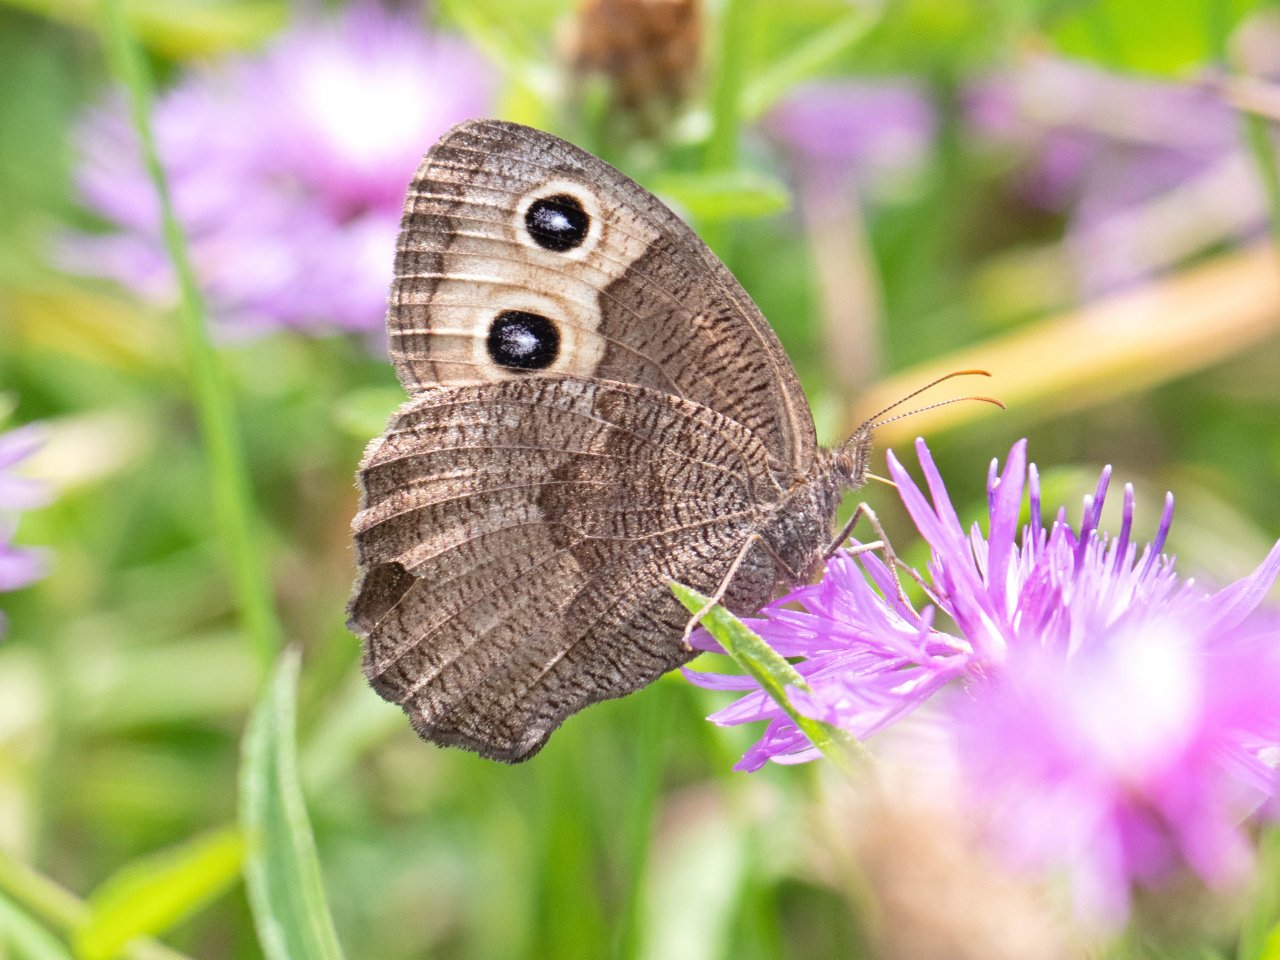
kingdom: Animalia
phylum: Arthropoda
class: Insecta
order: Lepidoptera
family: Nymphalidae
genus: Cercyonis
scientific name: Cercyonis pegala
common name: Common Wood-Nymph
